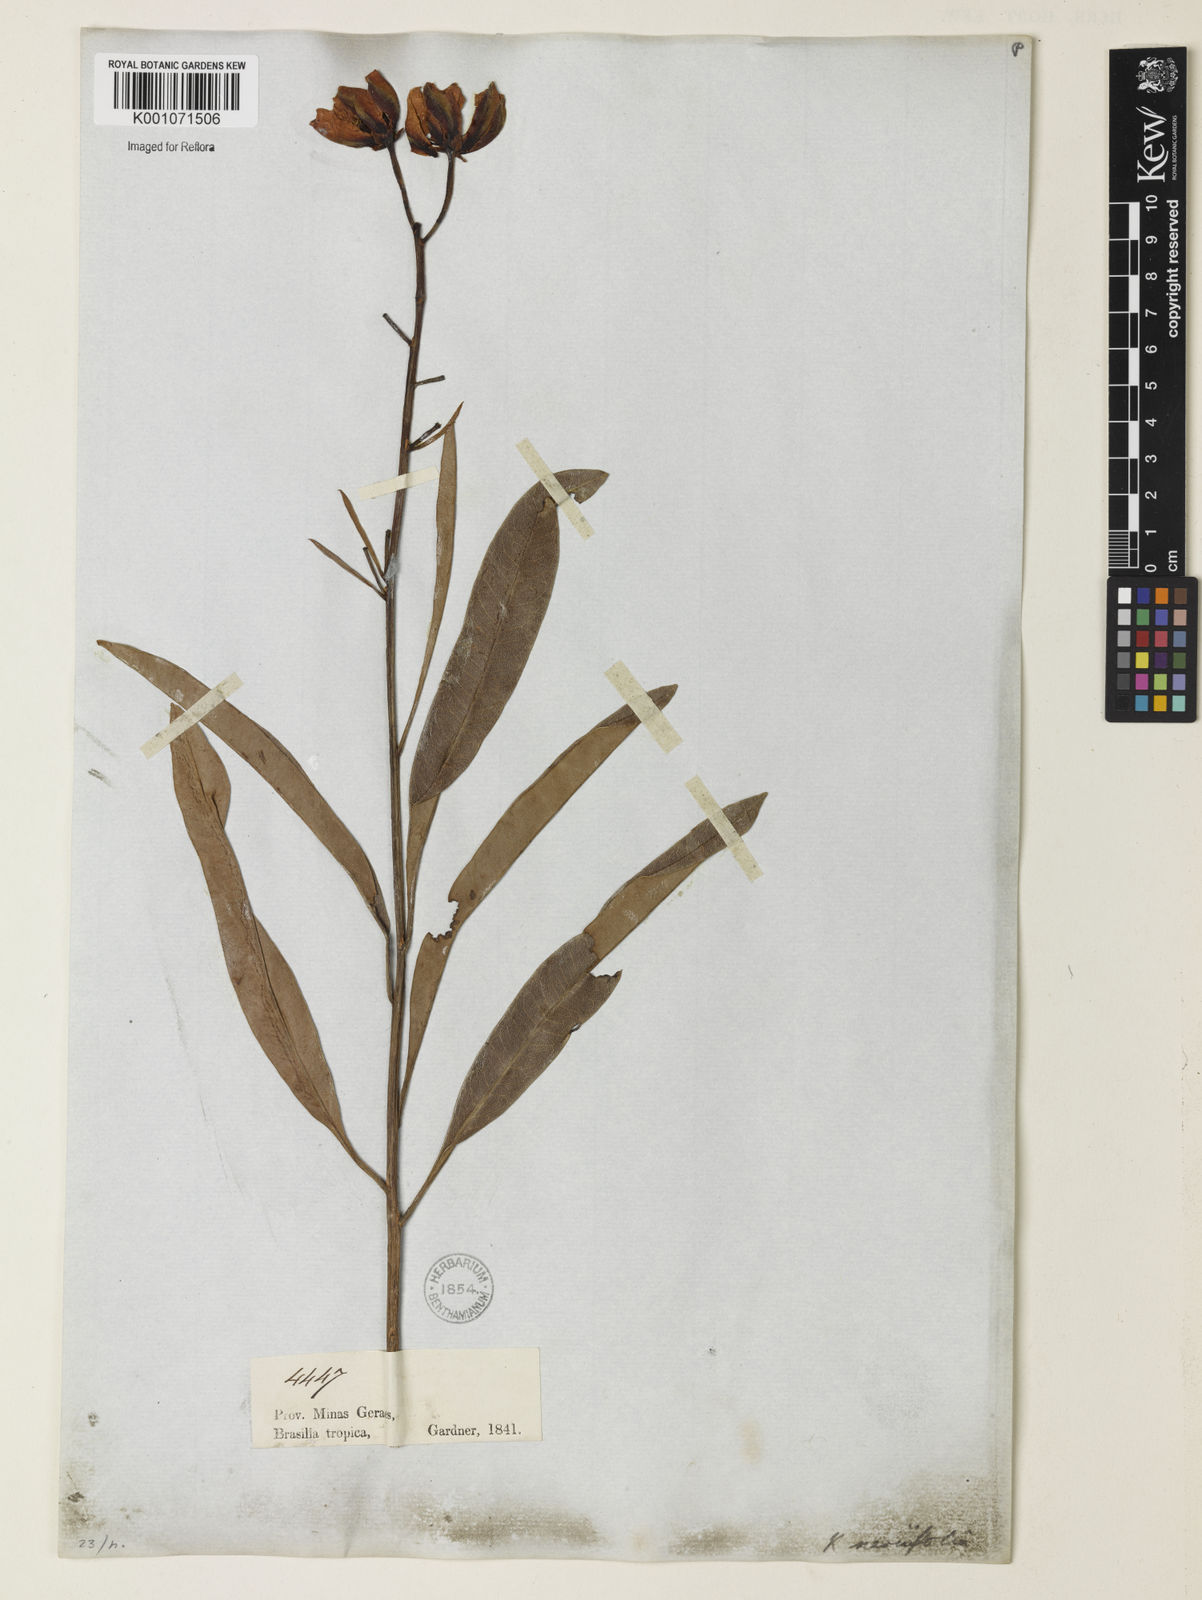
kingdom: Plantae
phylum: Tracheophyta
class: Magnoliopsida
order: Malpighiales
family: Calophyllaceae
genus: Kielmeyera
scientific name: Kielmeyera abdita
